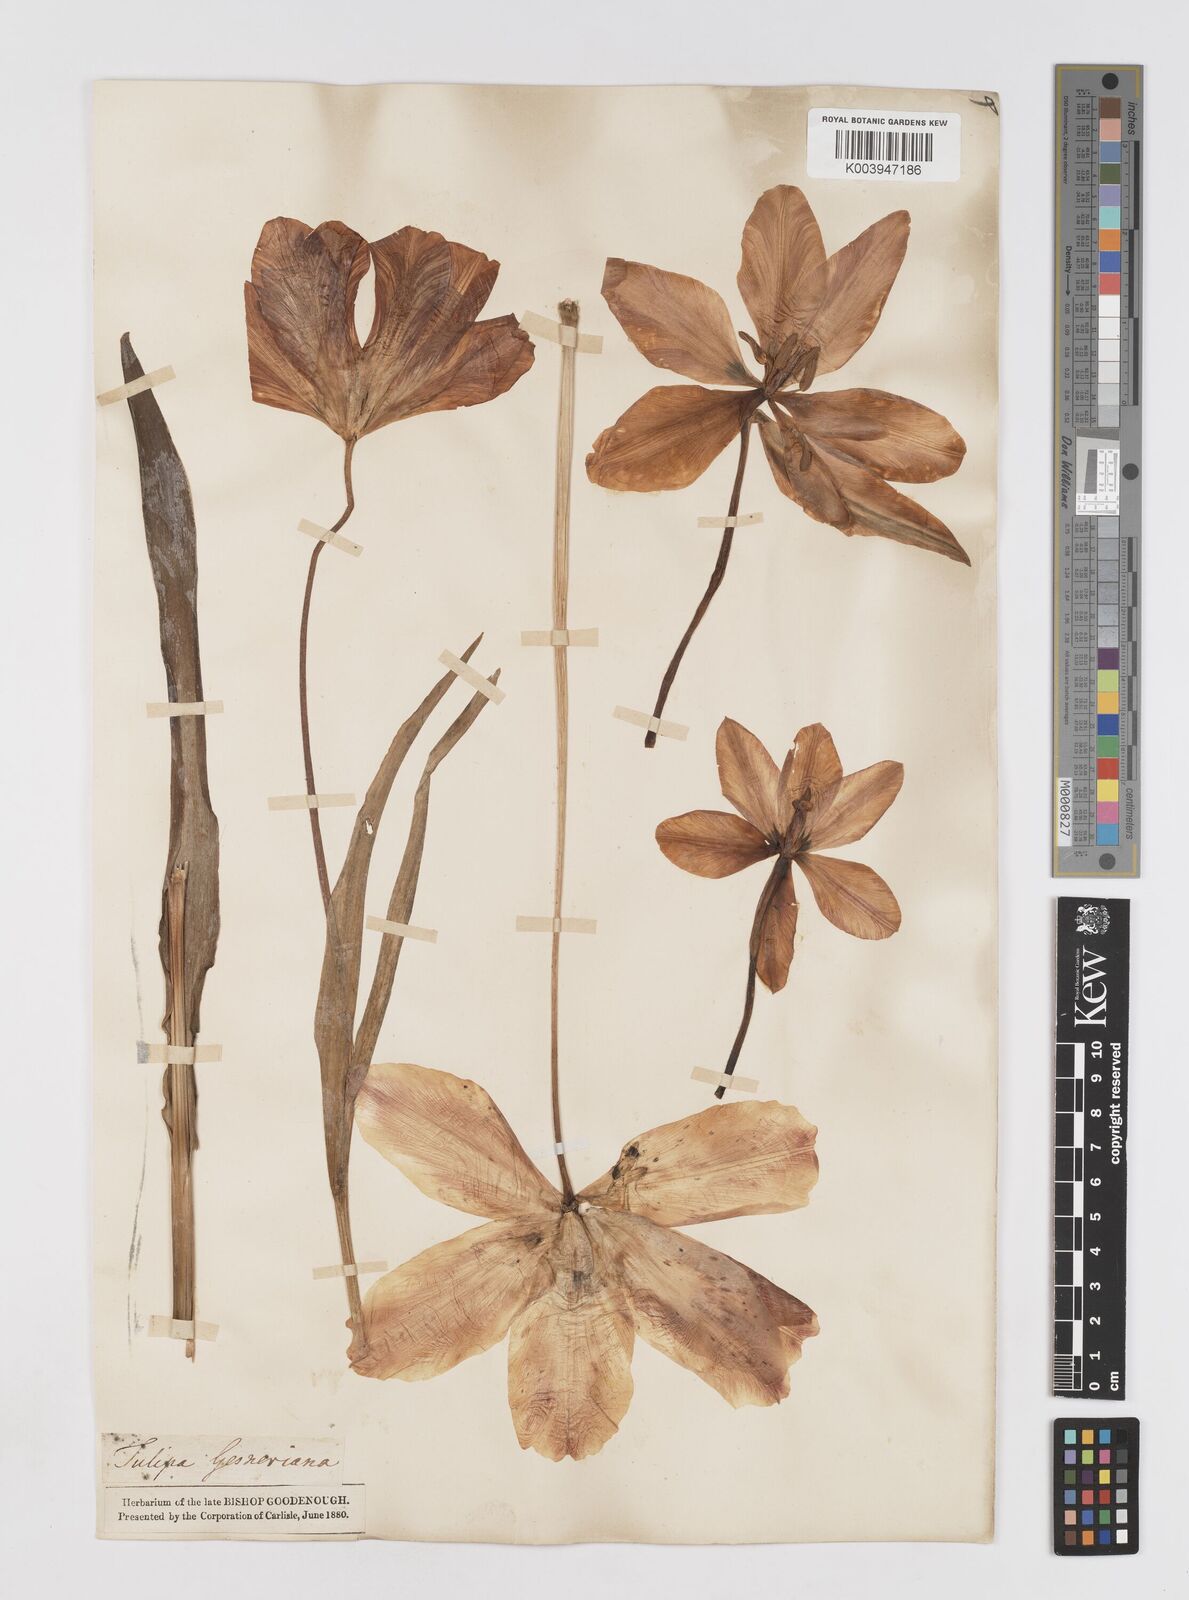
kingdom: Plantae
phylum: Tracheophyta
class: Liliopsida
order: Liliales
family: Liliaceae
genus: Tulipa
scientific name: Tulipa gesneriana
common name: Garden tulip
